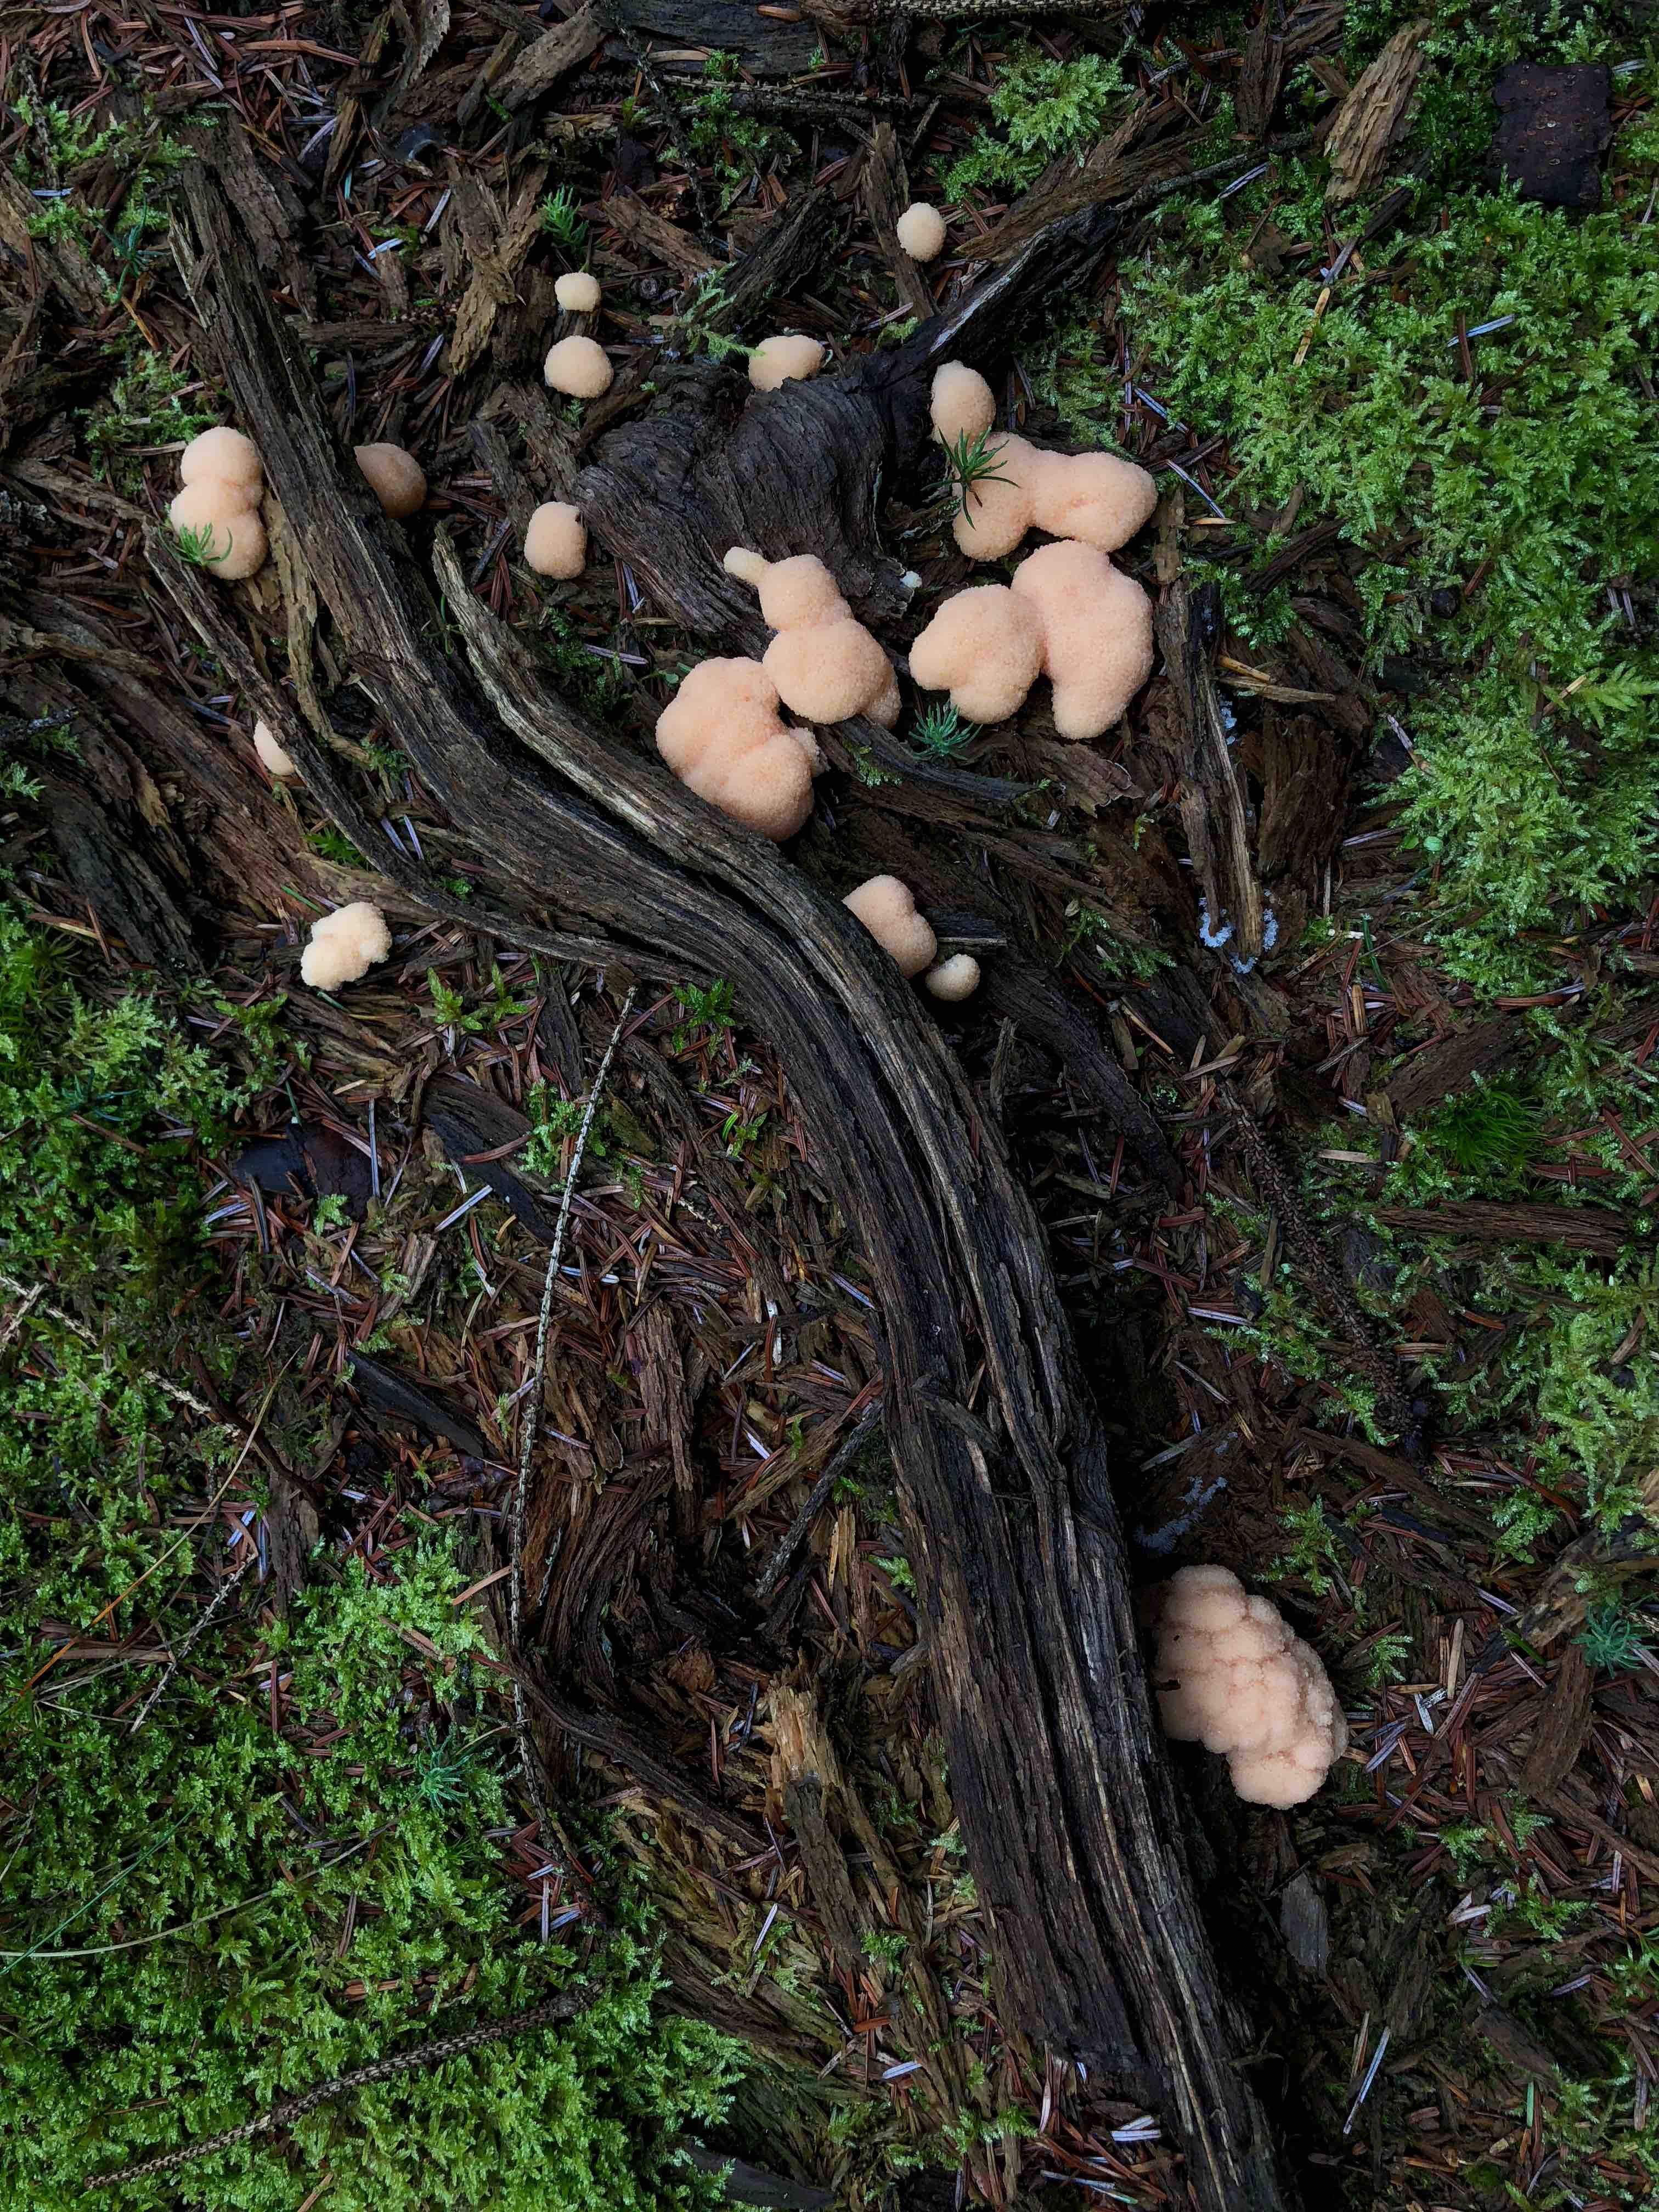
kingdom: Protozoa
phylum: Mycetozoa
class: Myxomycetes
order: Cribrariales
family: Tubiferaceae
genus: Tubifera
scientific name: Tubifera
